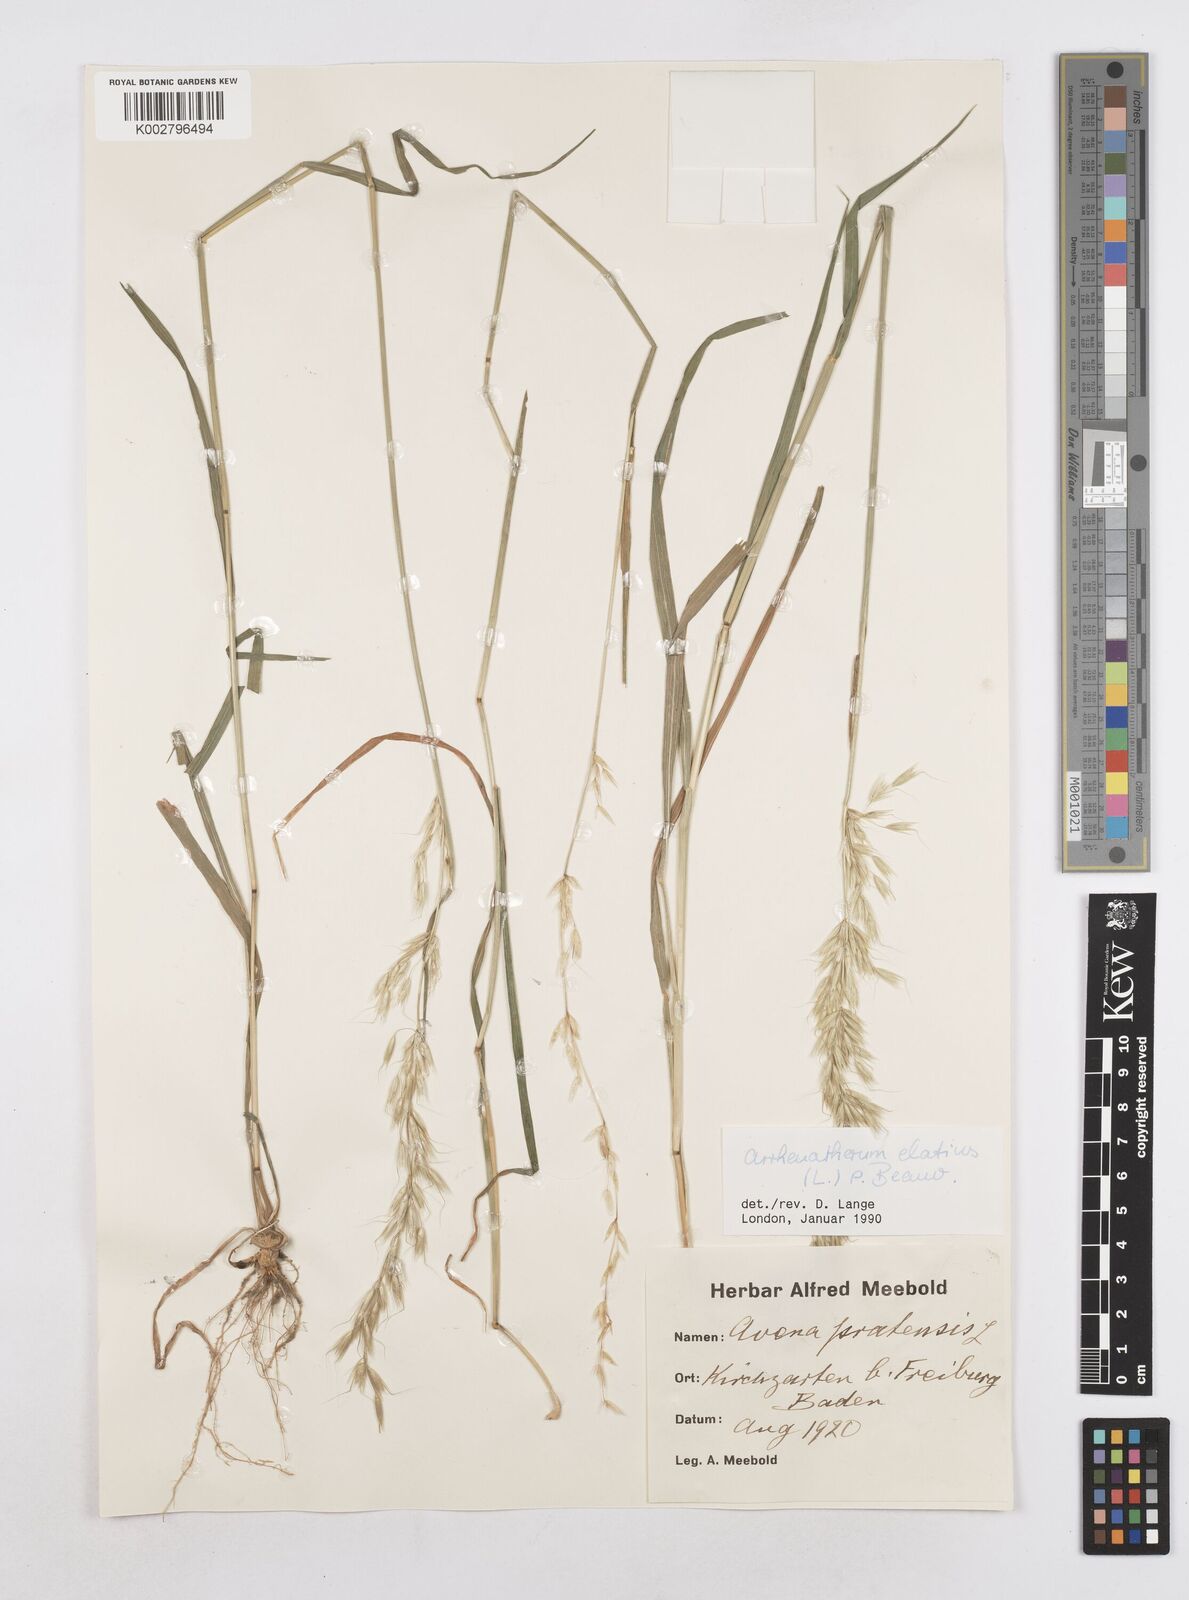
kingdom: Plantae
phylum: Tracheophyta
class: Liliopsida
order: Poales
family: Poaceae
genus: Arrhenatherum
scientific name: Arrhenatherum elatius
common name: Tall oatgrass
